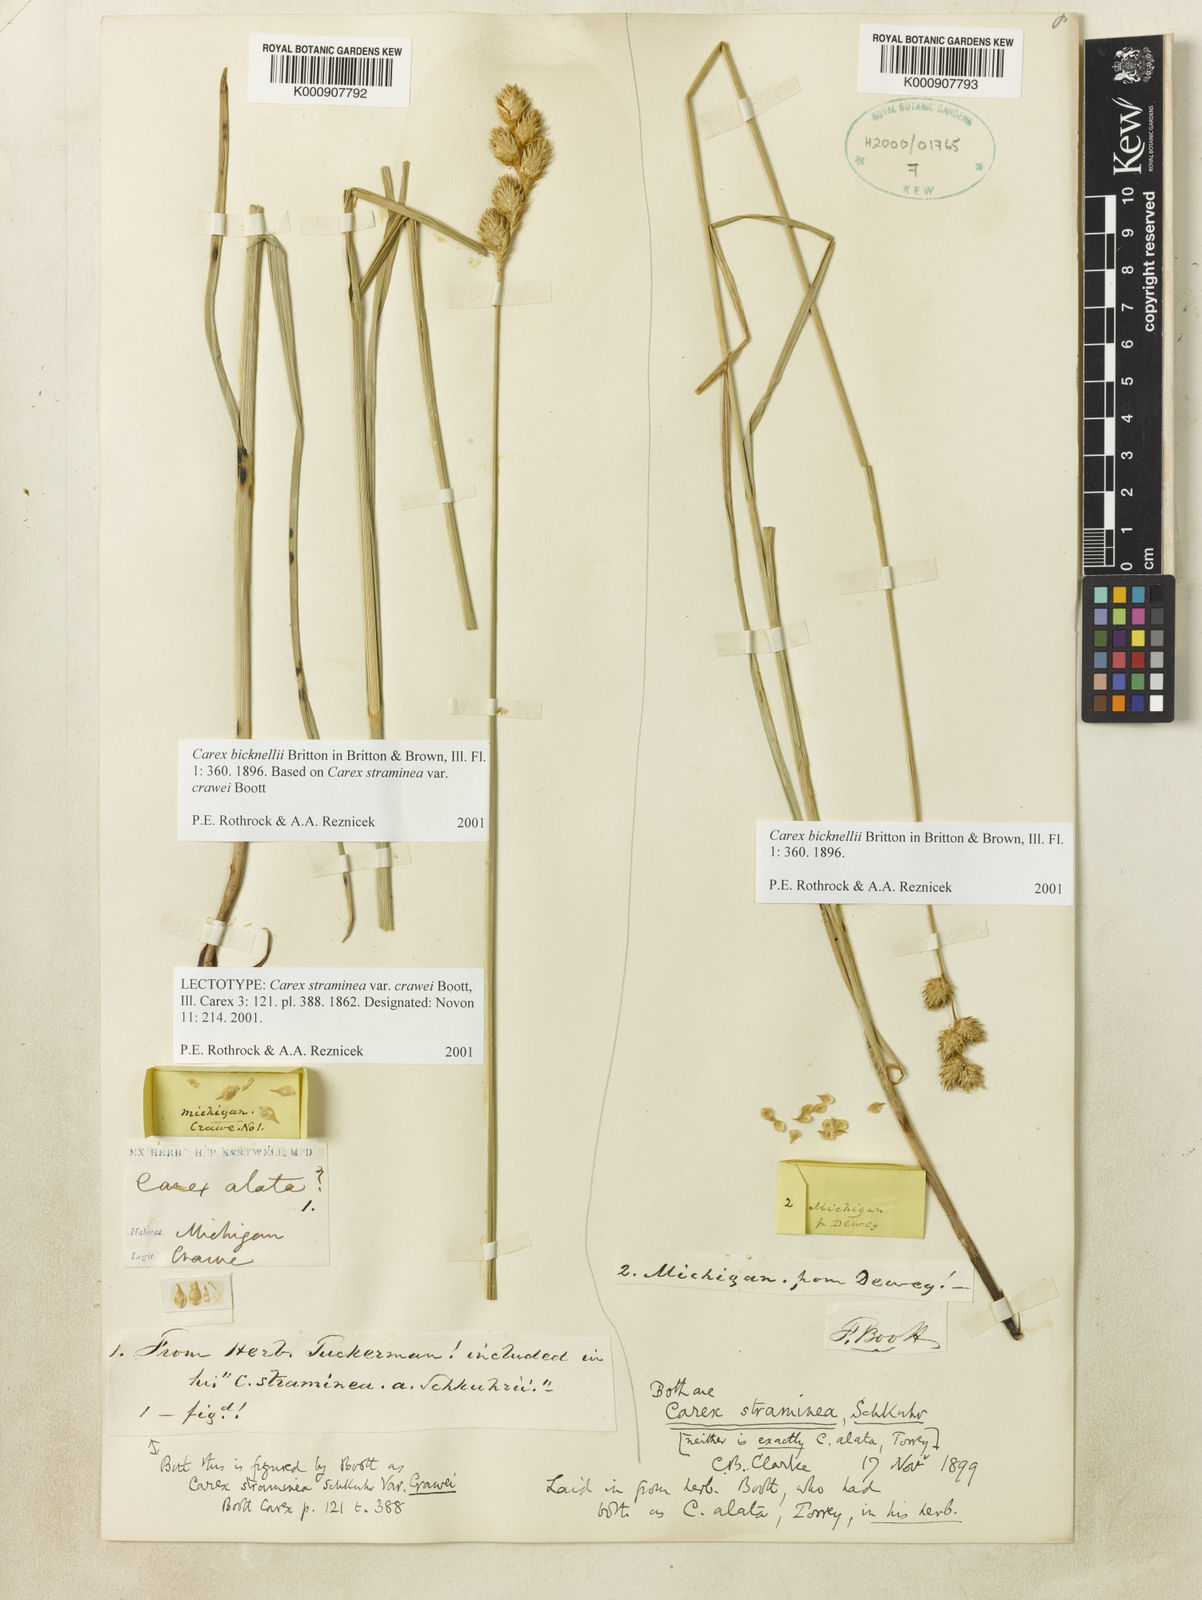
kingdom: Plantae
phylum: Tracheophyta
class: Liliopsida
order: Poales
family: Cyperaceae
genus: Carex
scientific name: Carex brevior
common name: Brevior sedge
